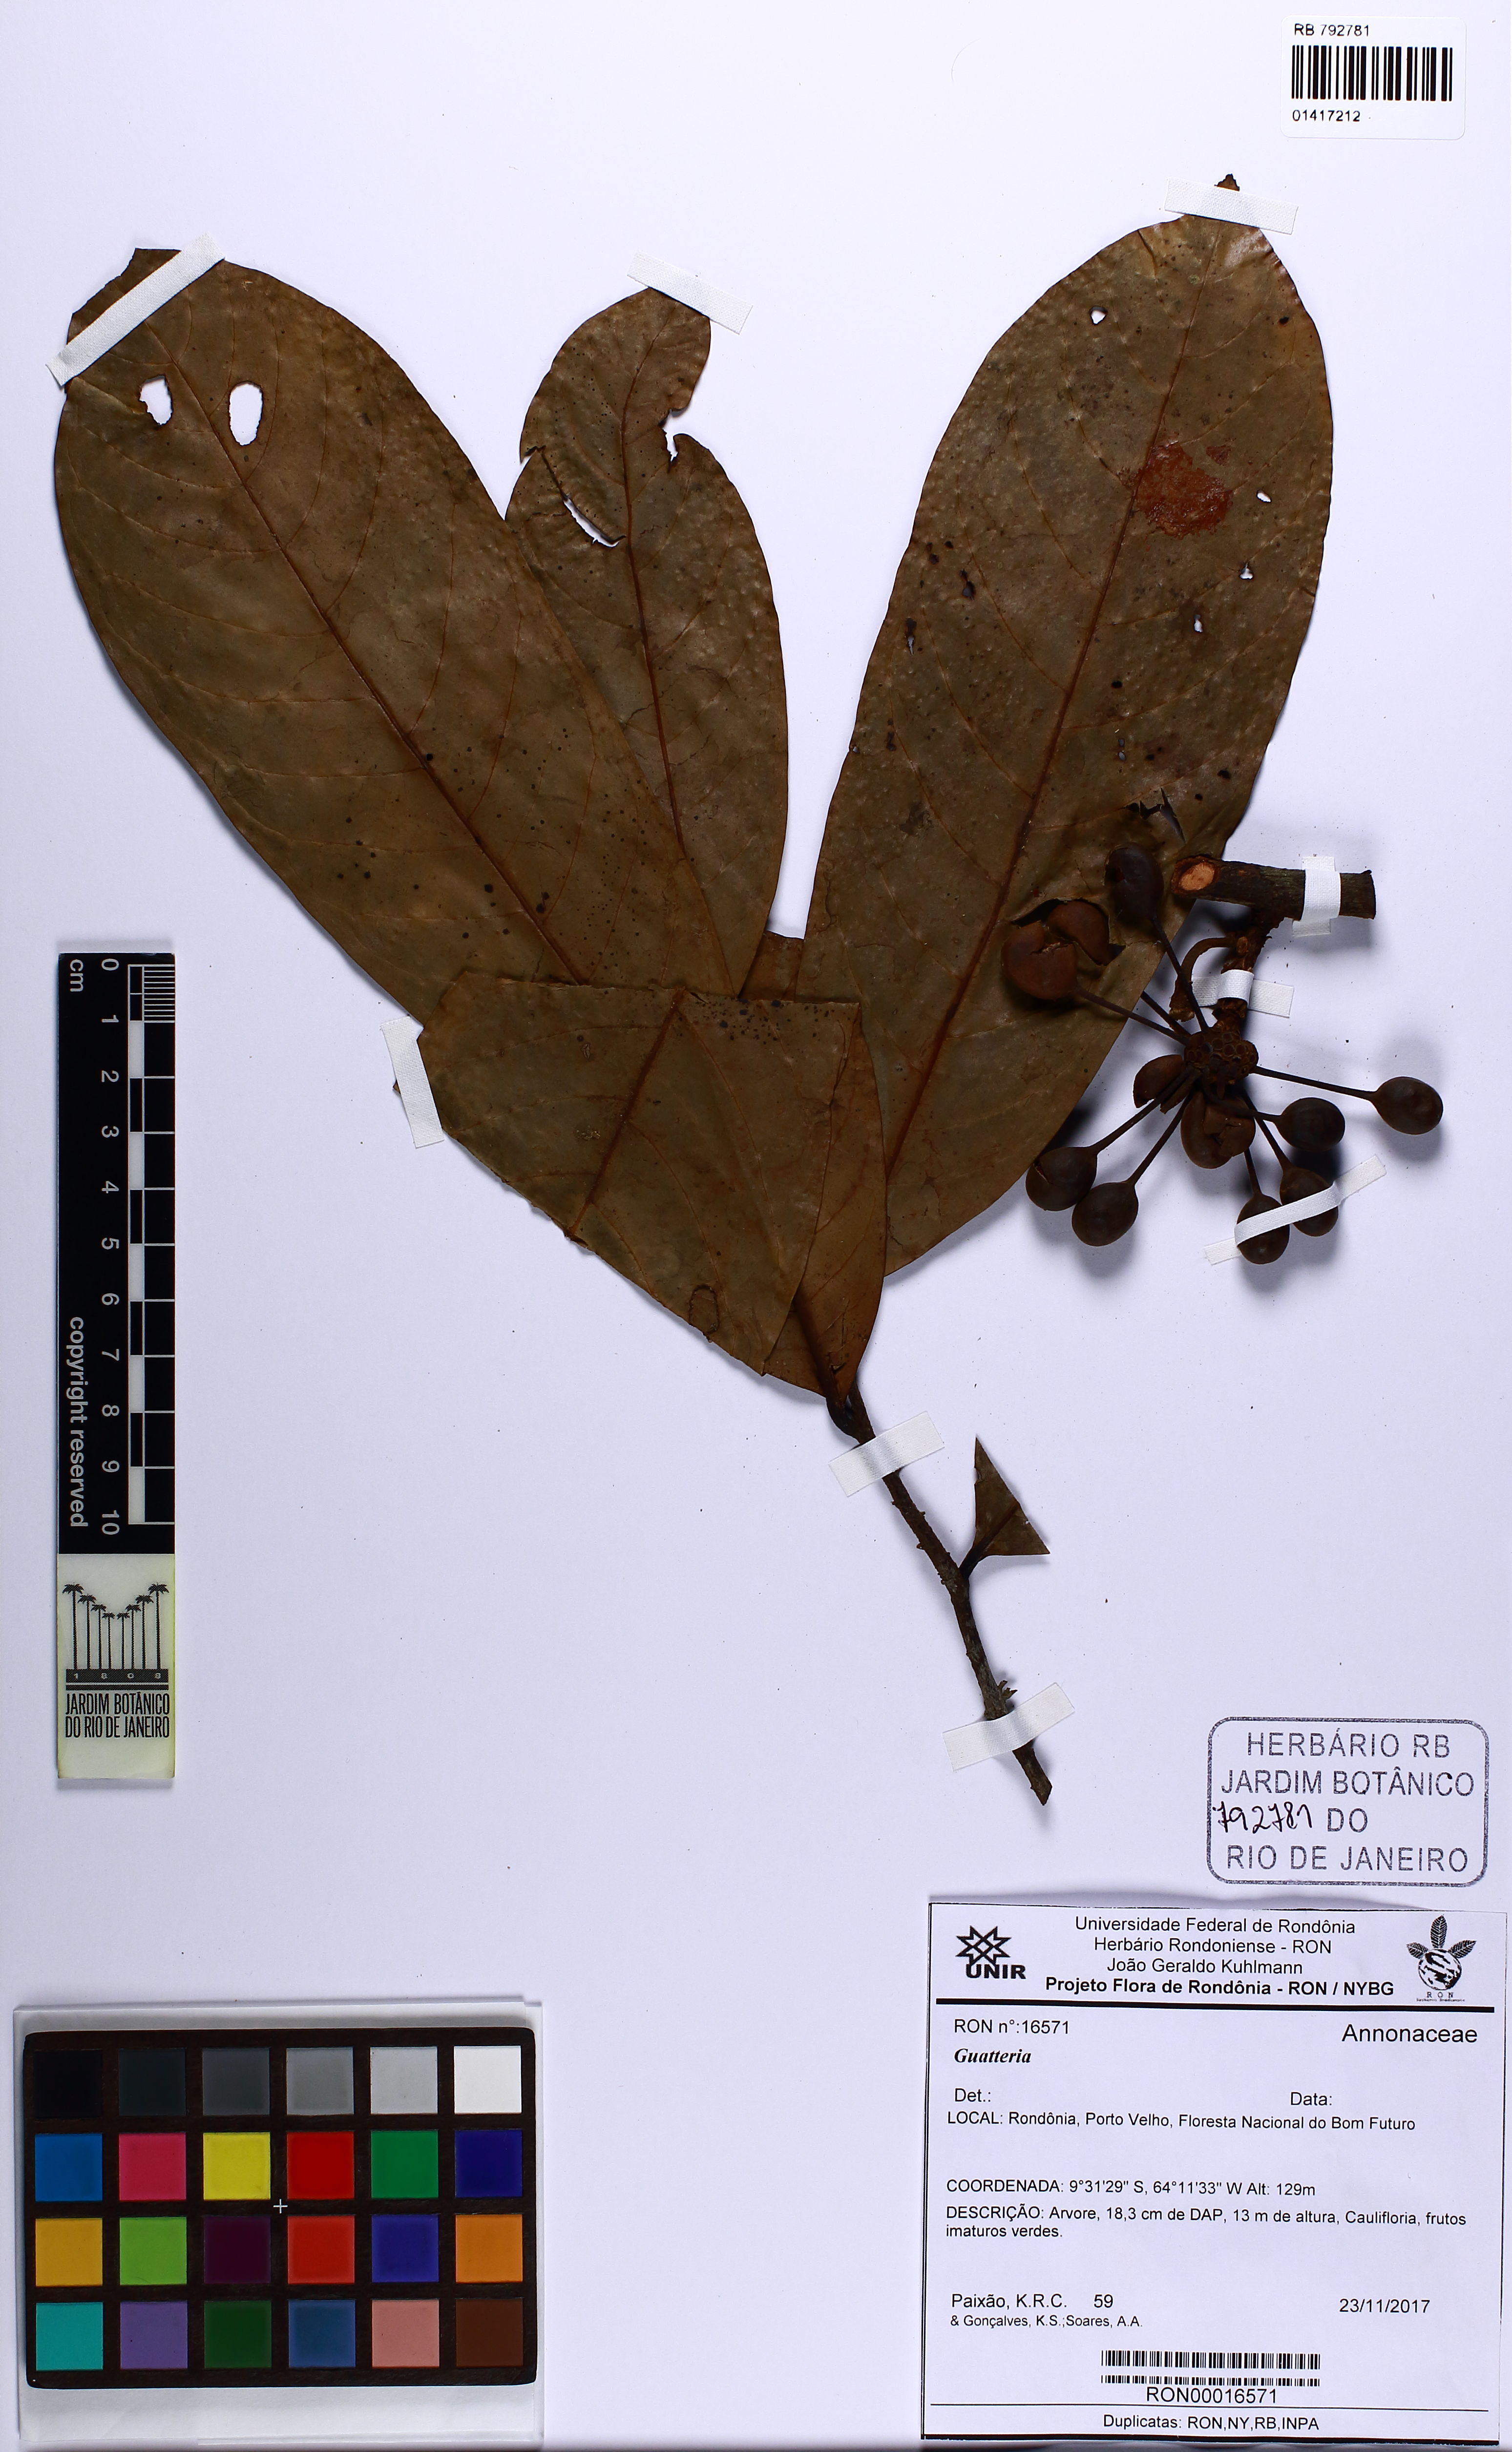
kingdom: Plantae
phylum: Tracheophyta
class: Magnoliopsida
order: Magnoliales
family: Annonaceae
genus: Guatteria
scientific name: Guatteria
